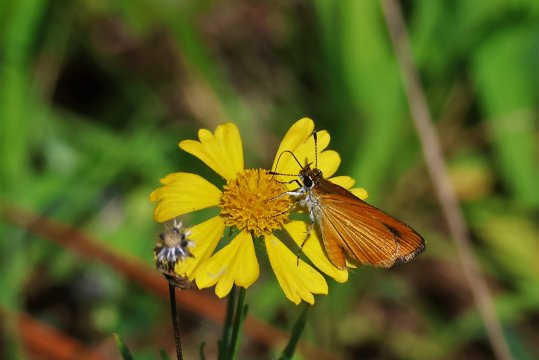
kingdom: Animalia
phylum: Arthropoda
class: Insecta
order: Lepidoptera
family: Hesperiidae
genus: Ancyloxypha
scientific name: Ancyloxypha numitor
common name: Least Skipper
